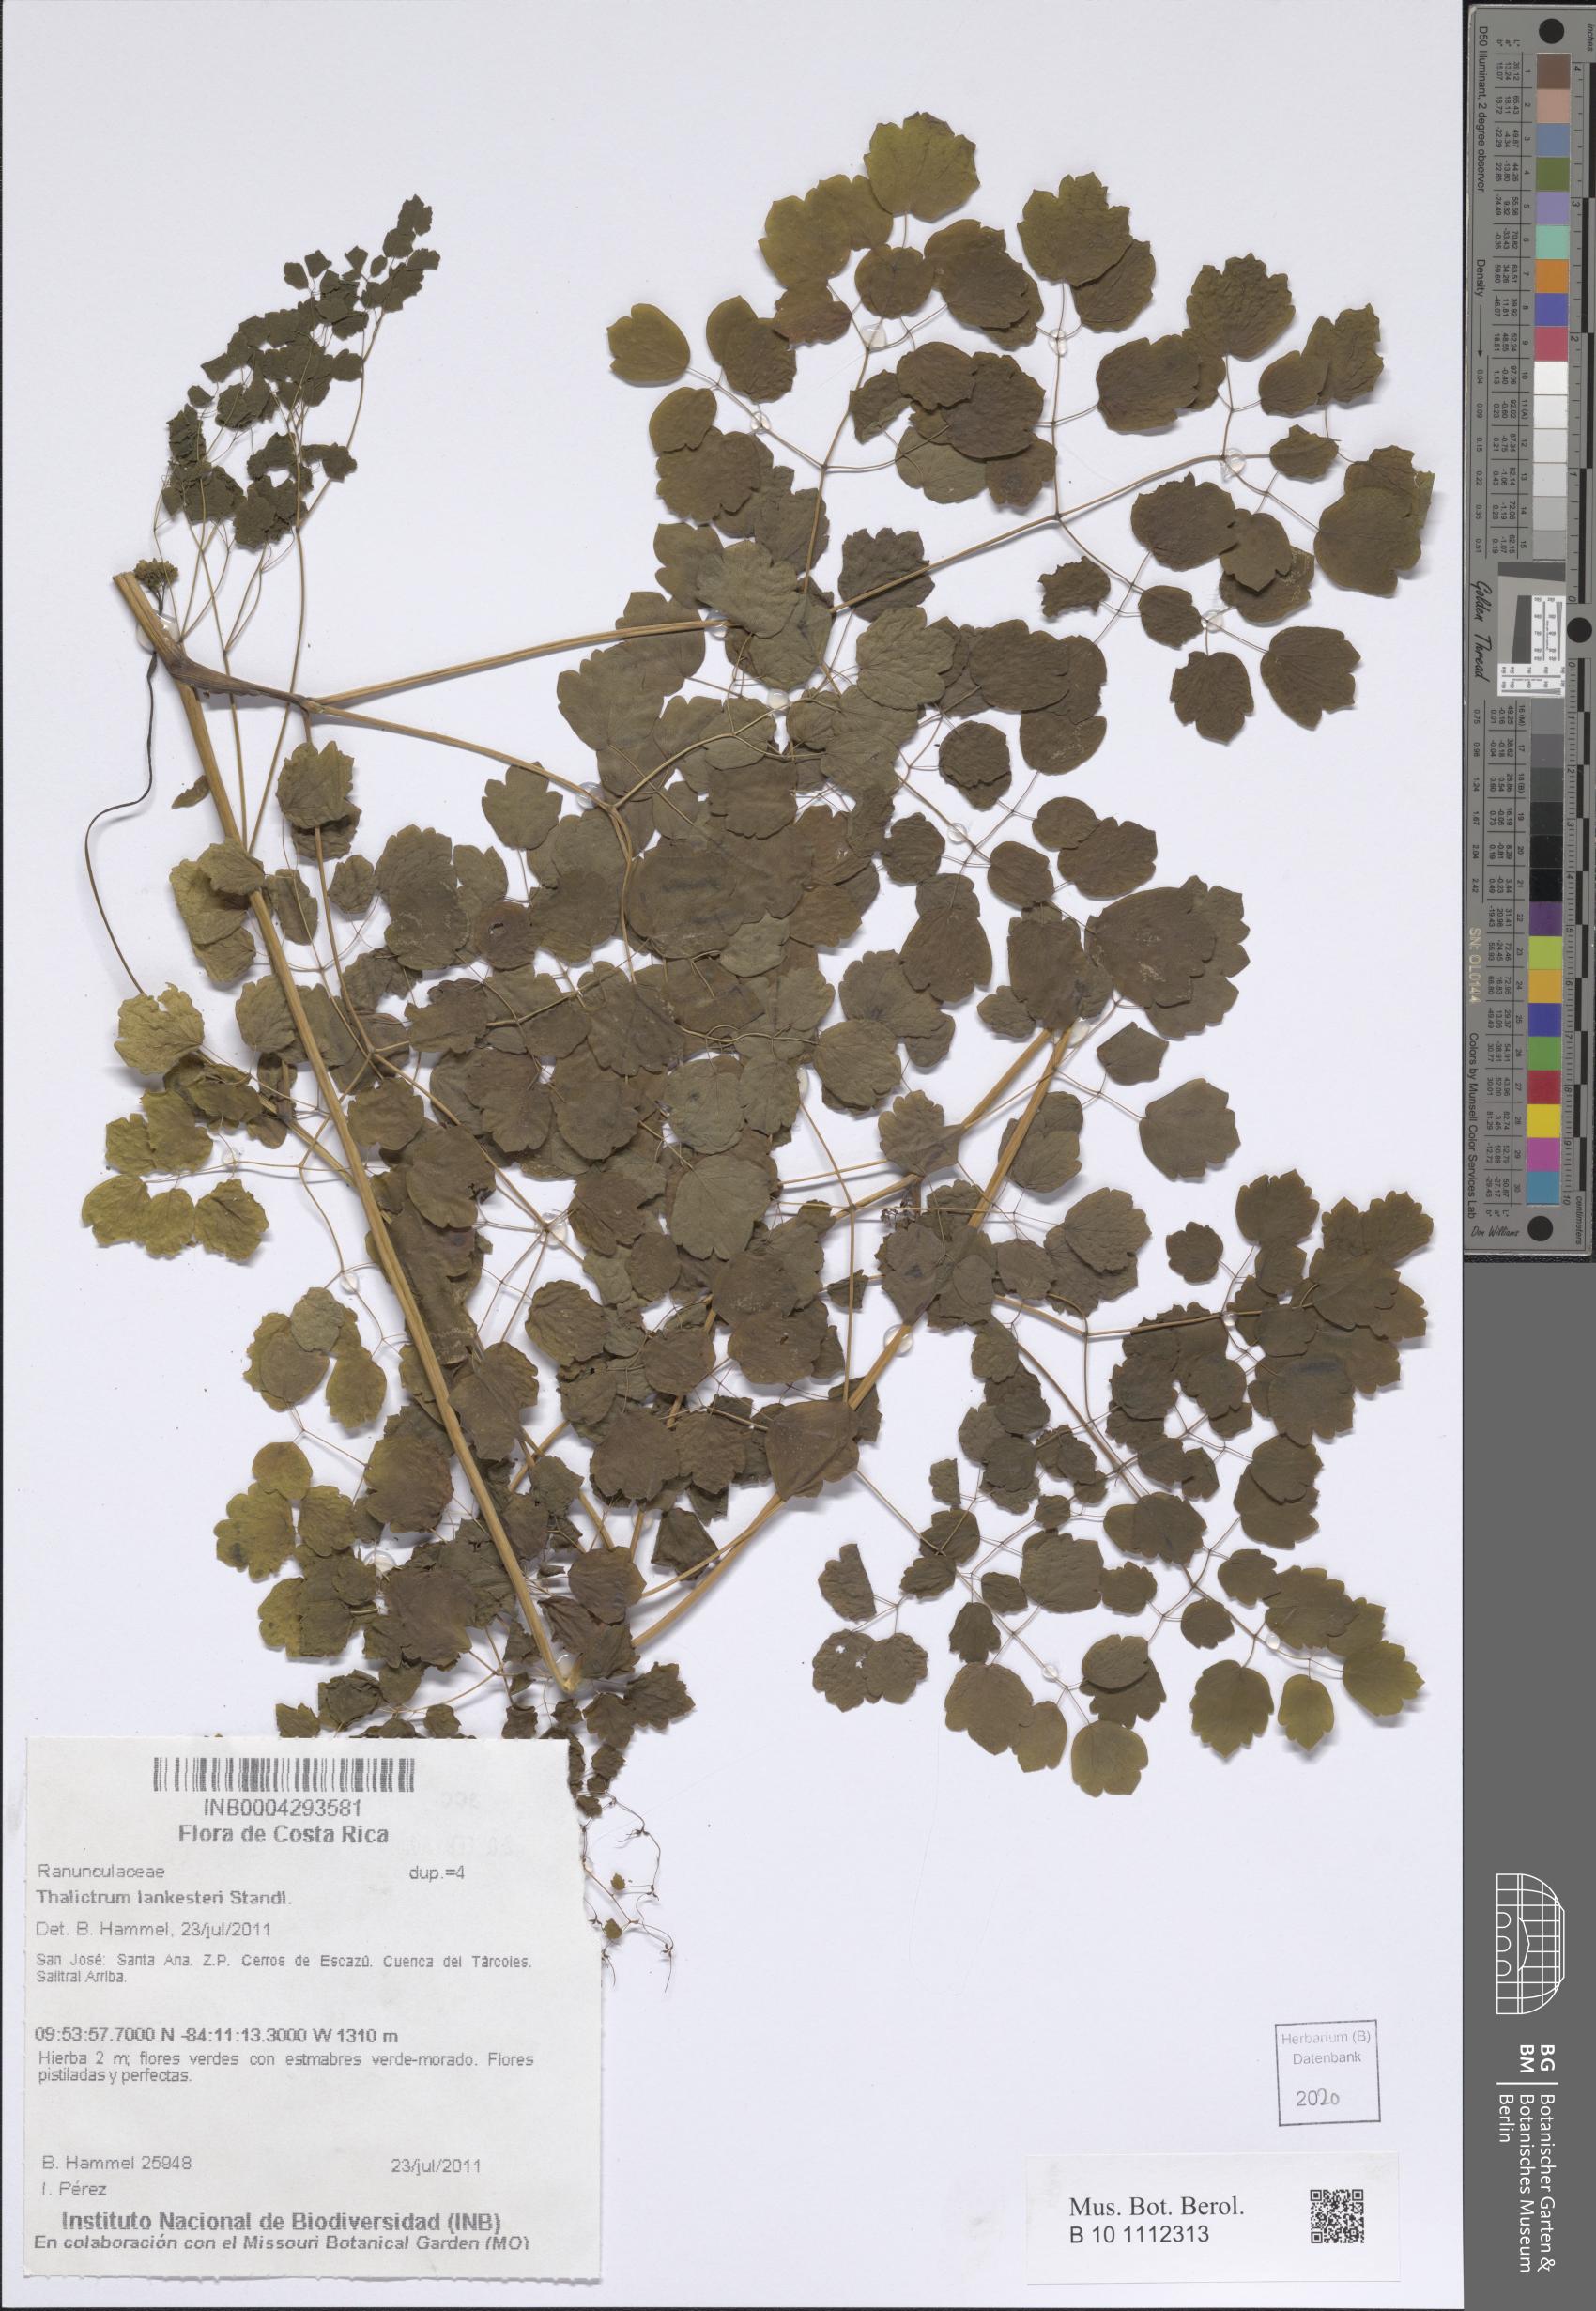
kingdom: Plantae
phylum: Tracheophyta
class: Magnoliopsida
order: Ranunculales
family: Ranunculaceae
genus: Thalictrum
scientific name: Thalictrum lankesteri
